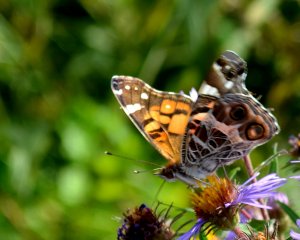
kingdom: Animalia
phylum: Arthropoda
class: Insecta
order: Lepidoptera
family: Nymphalidae
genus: Vanessa
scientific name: Vanessa virginiensis
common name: American Lady
